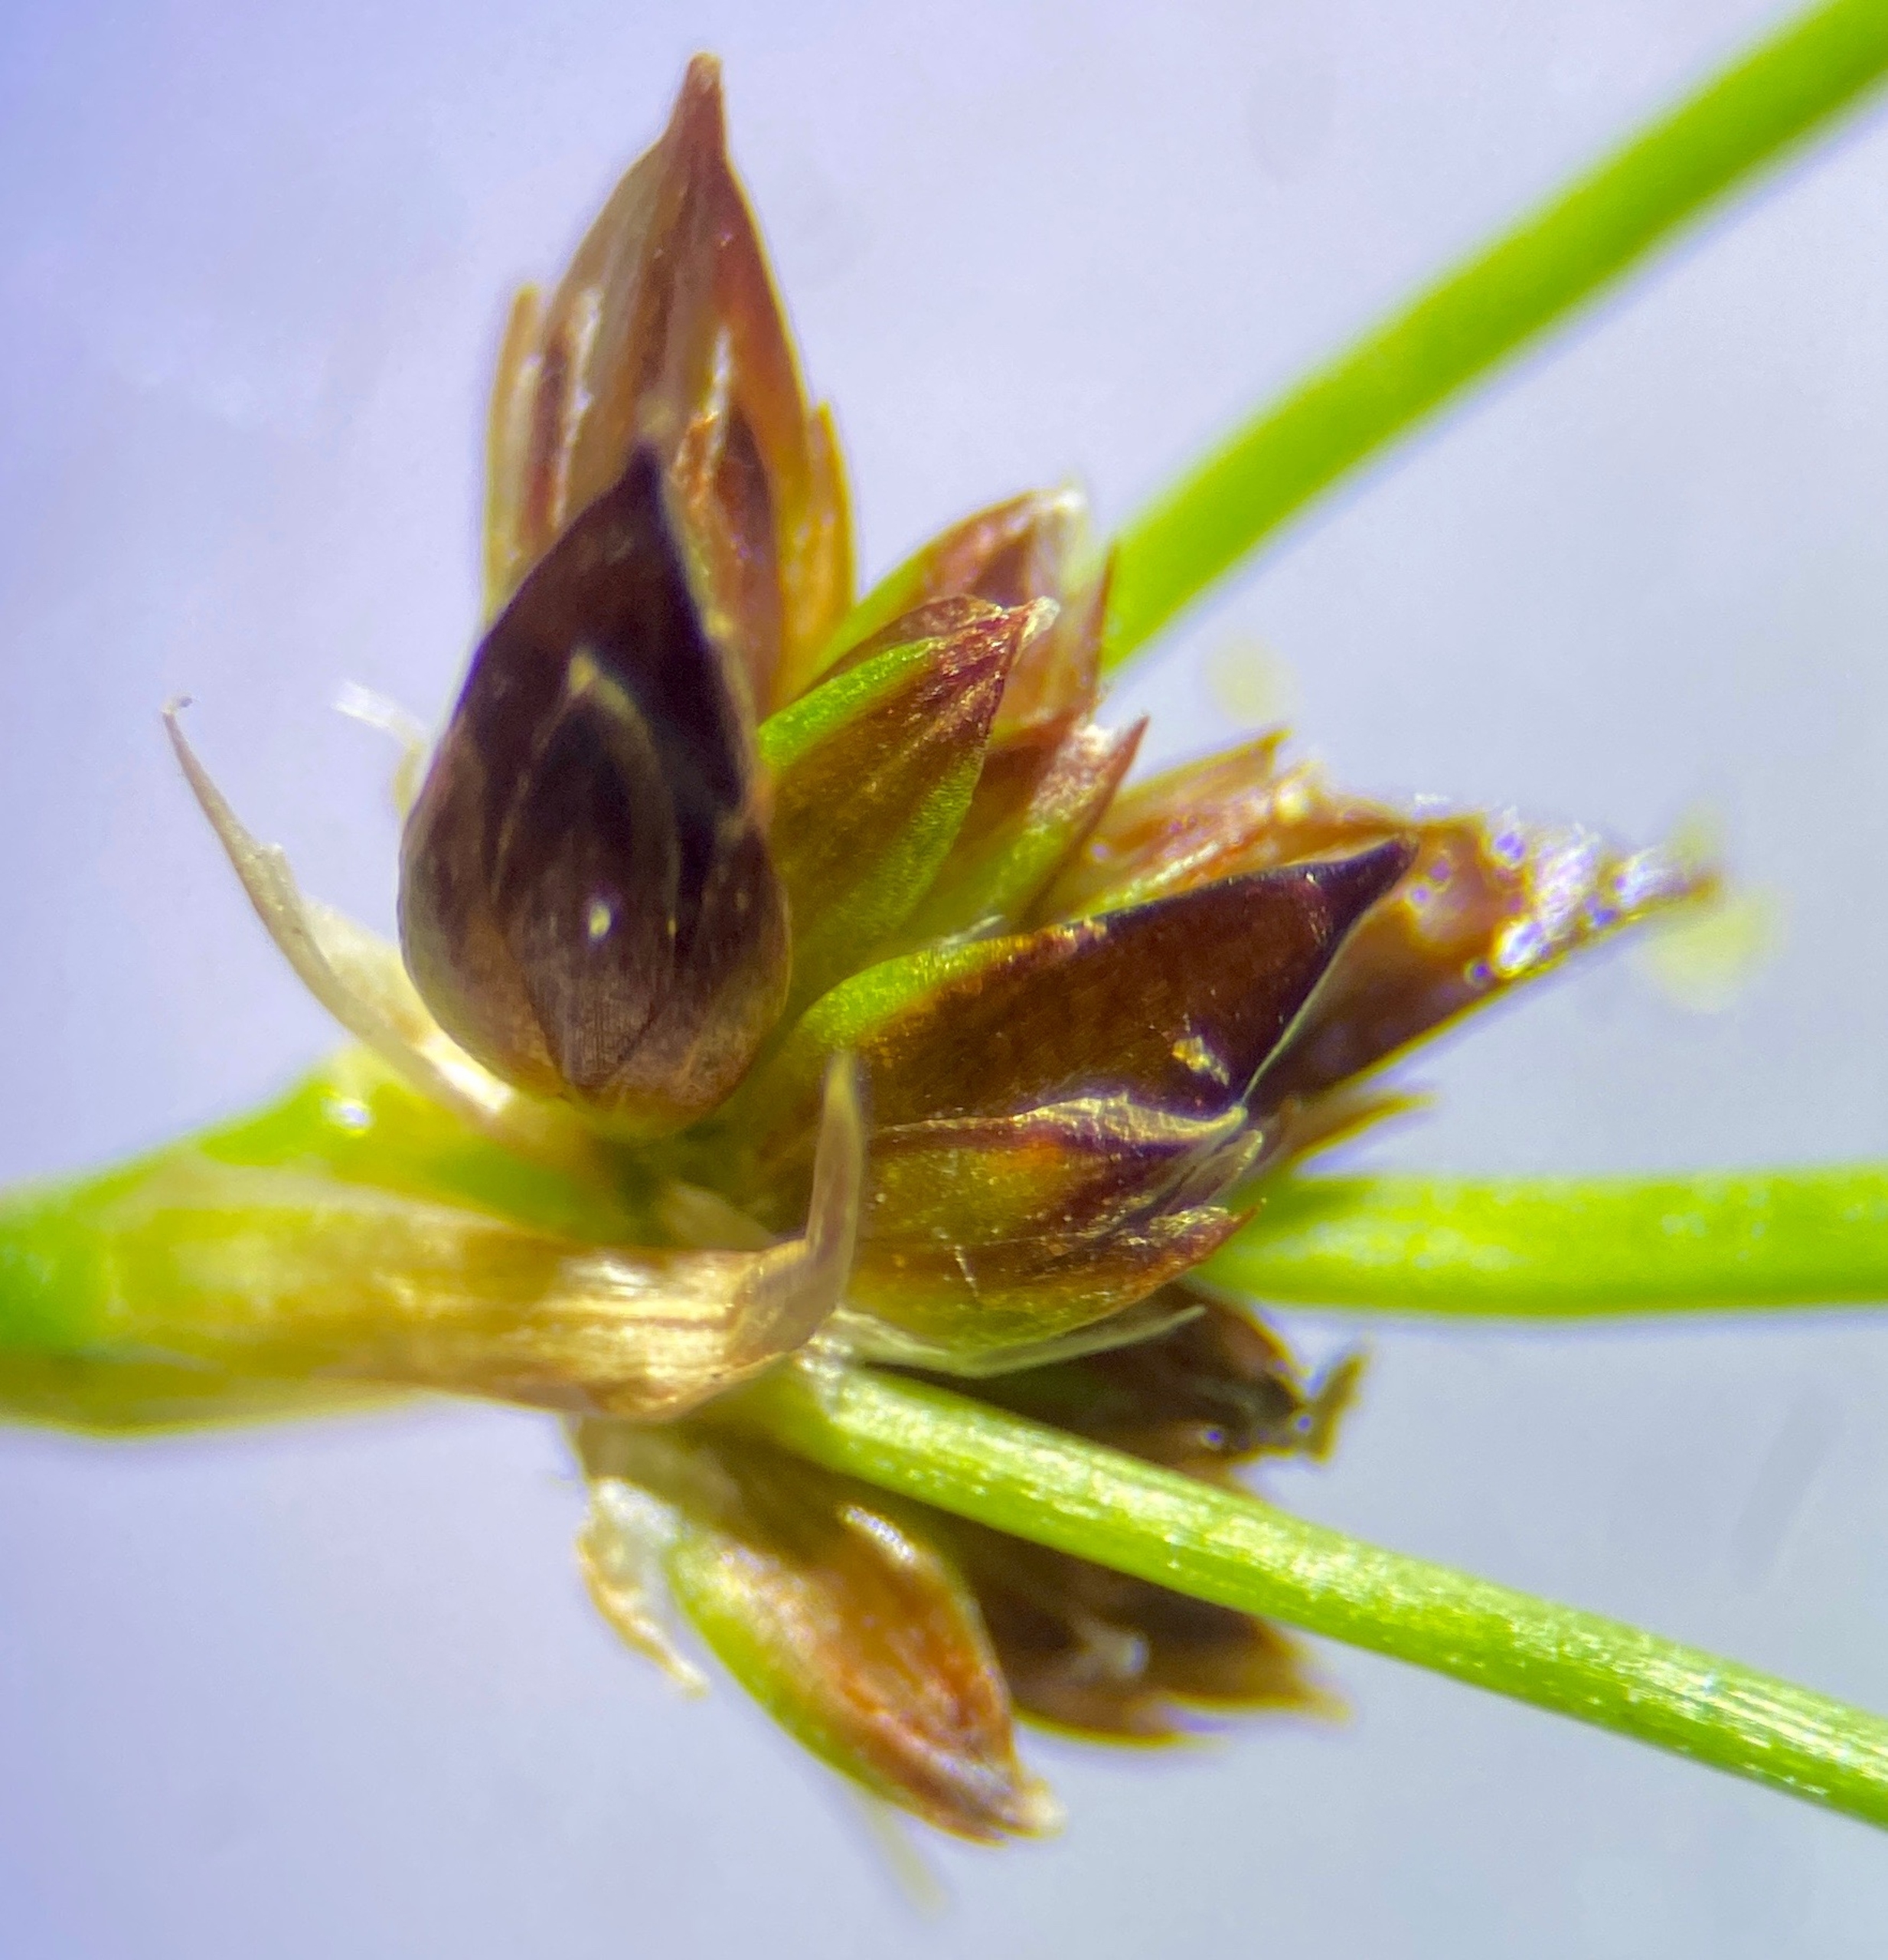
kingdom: Plantae
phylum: Tracheophyta
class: Liliopsida
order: Poales
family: Juncaceae
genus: Juncus
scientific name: Juncus articulatus
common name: Glanskapslet siv
